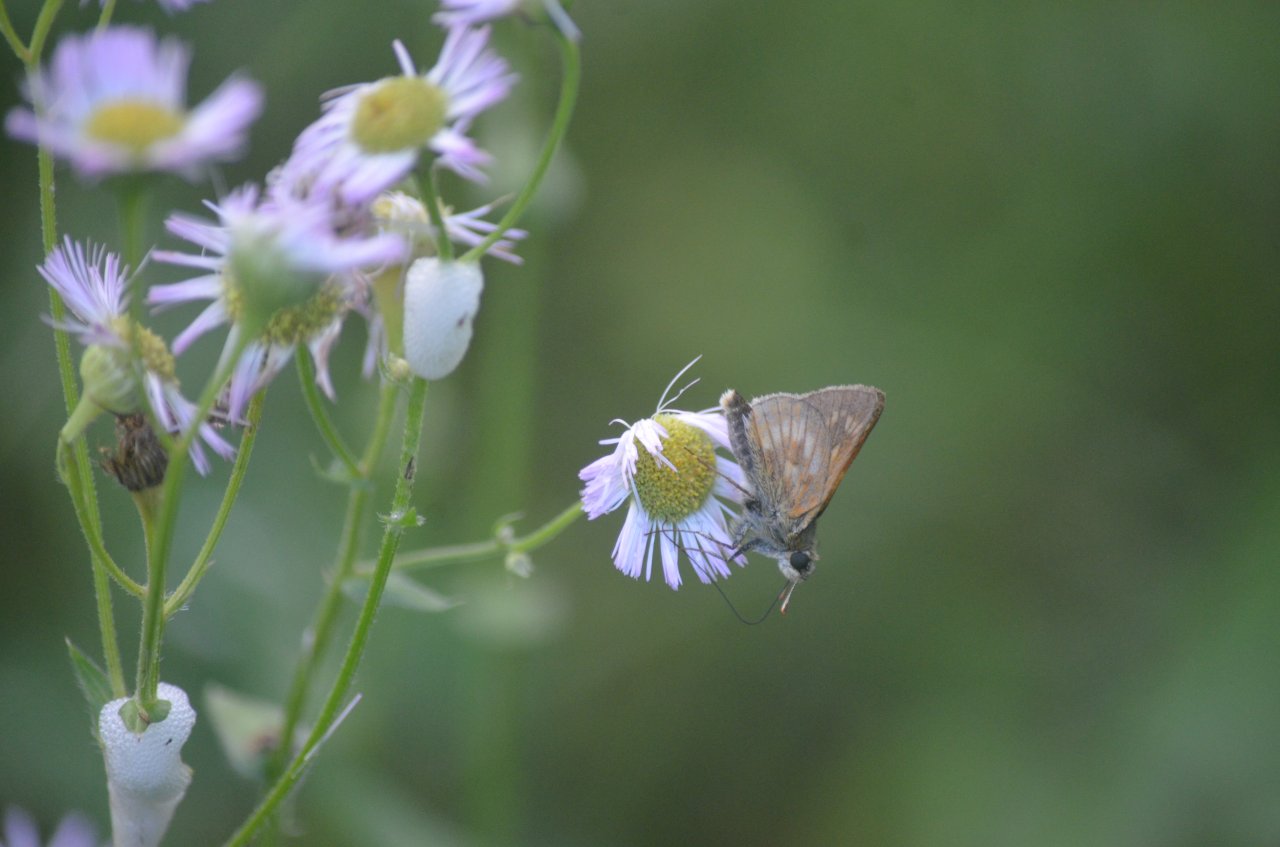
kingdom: Animalia
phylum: Arthropoda
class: Insecta
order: Lepidoptera
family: Hesperiidae
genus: Polites
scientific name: Polites
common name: Long Dash Skipper
